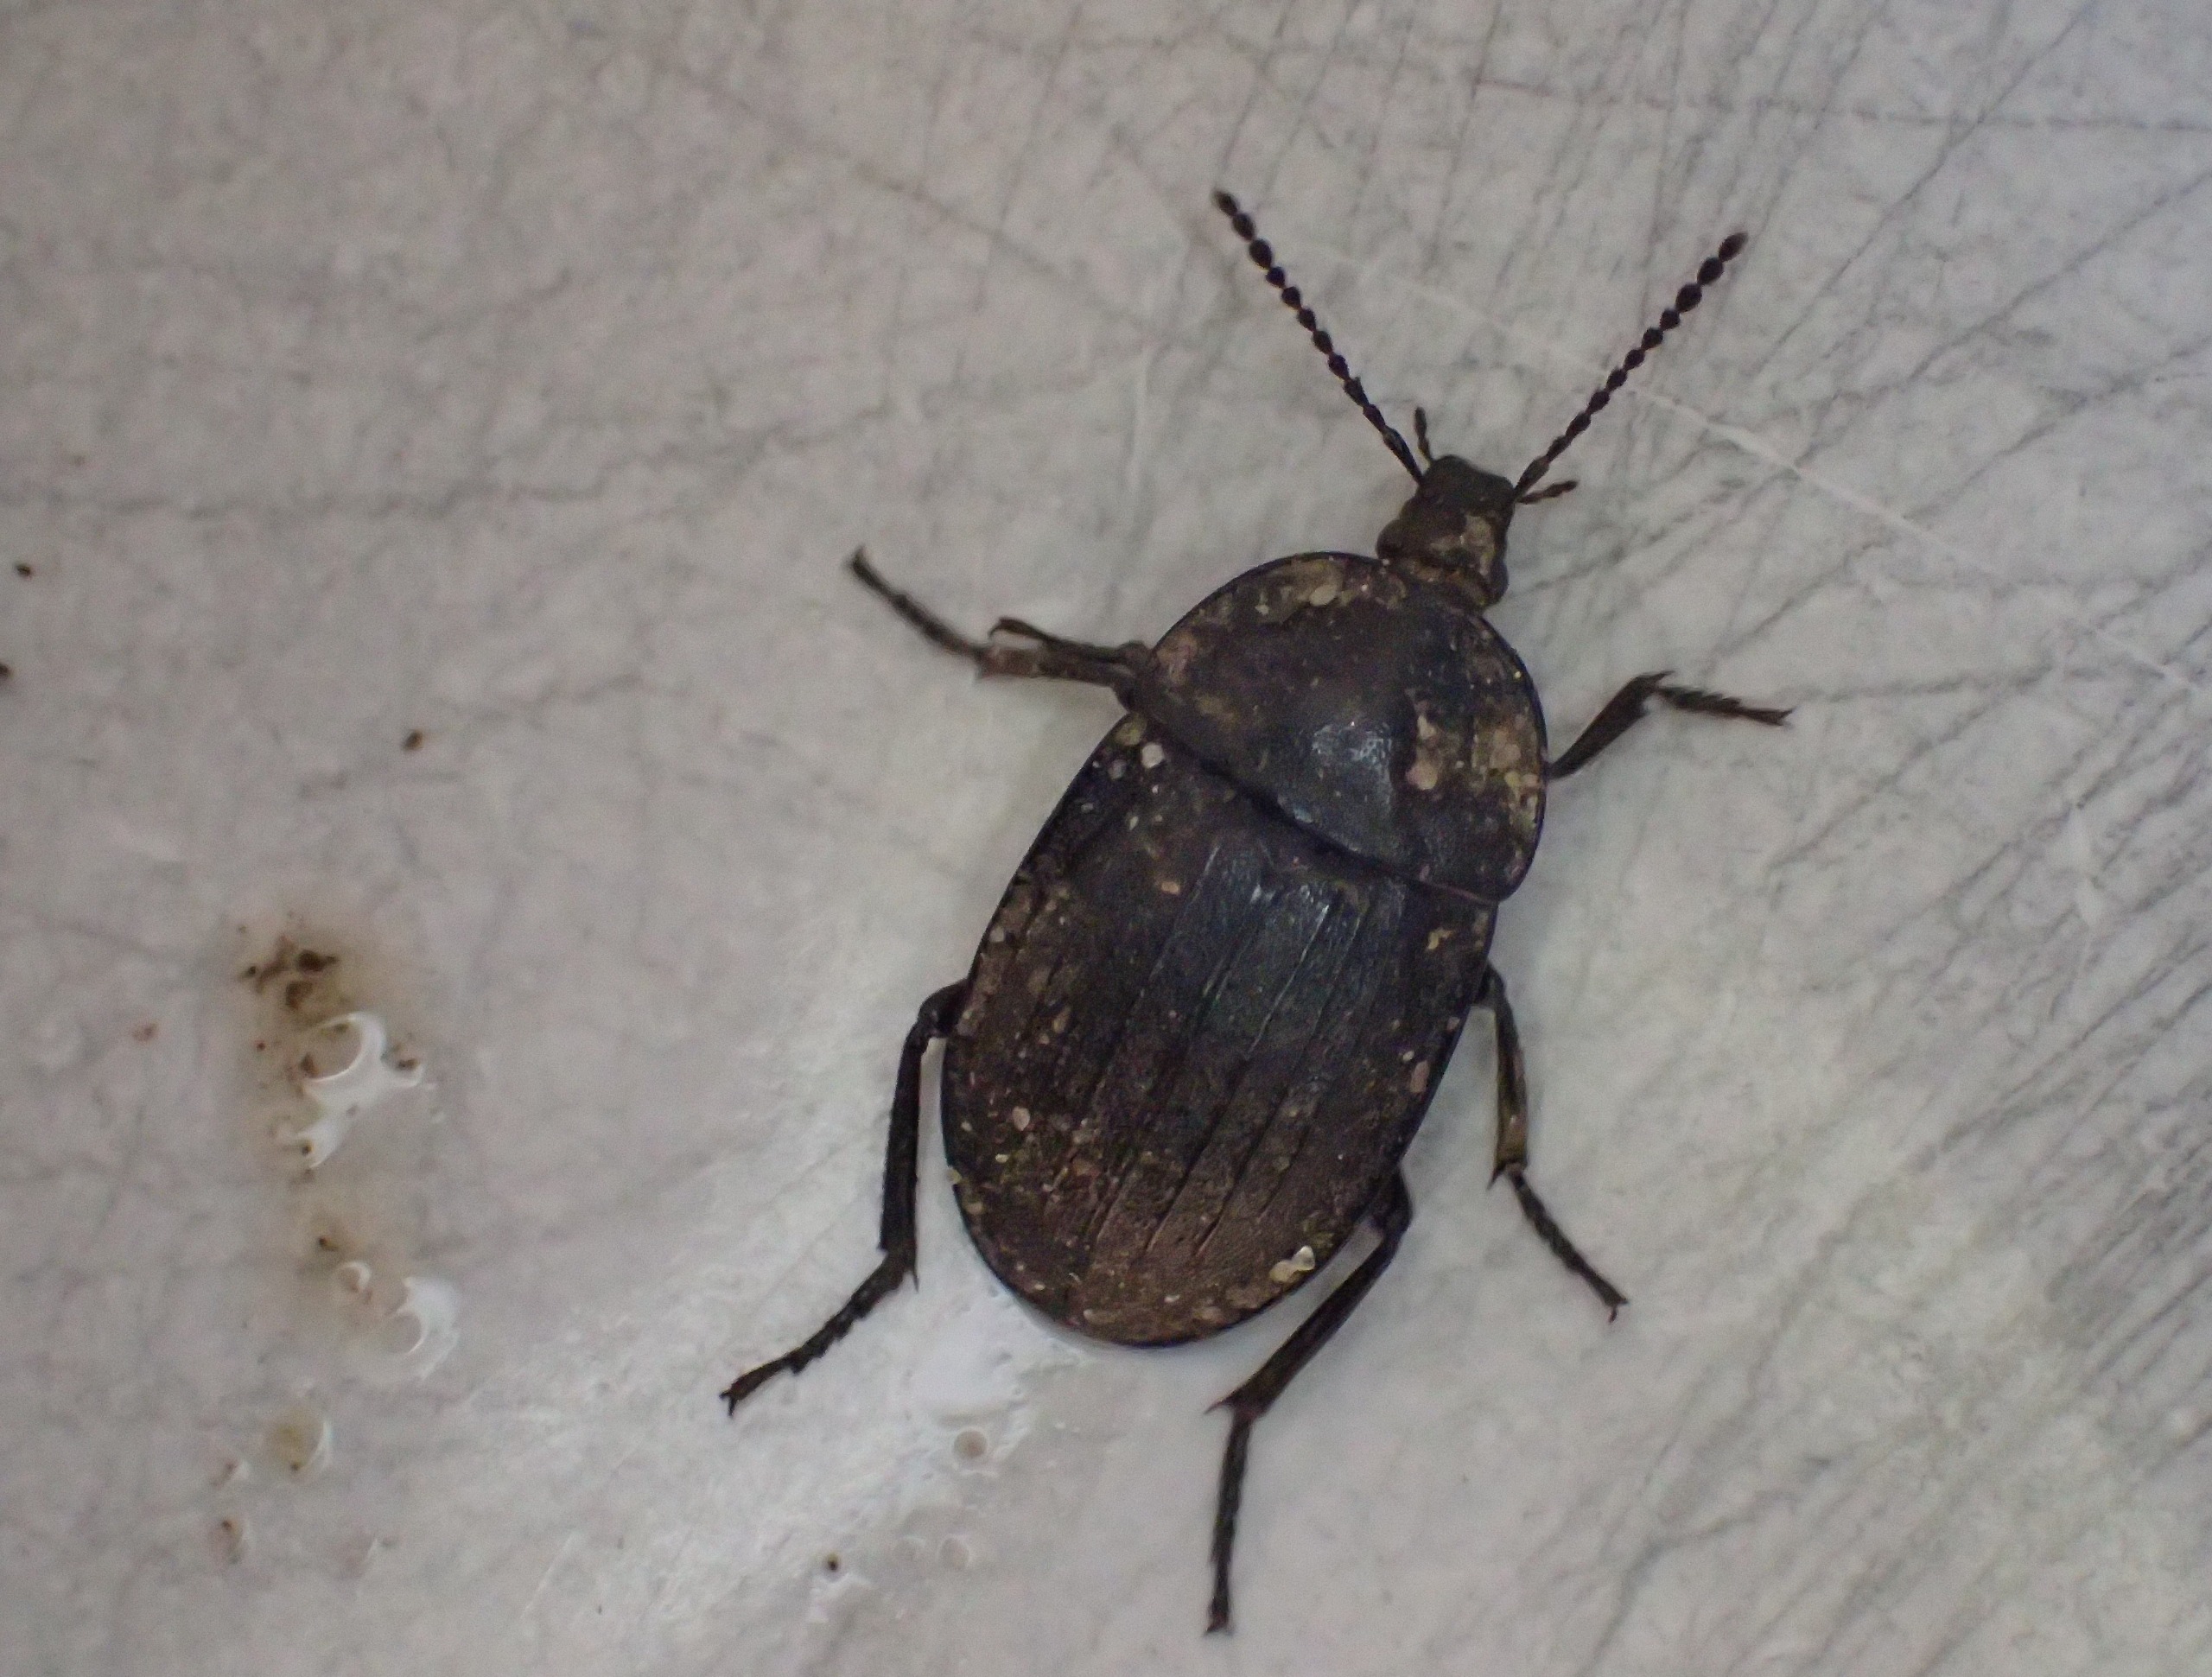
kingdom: Animalia
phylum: Arthropoda
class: Insecta
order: Coleoptera
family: Staphylinidae
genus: Silpha
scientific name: Silpha atrata
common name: Snegleådselbille
